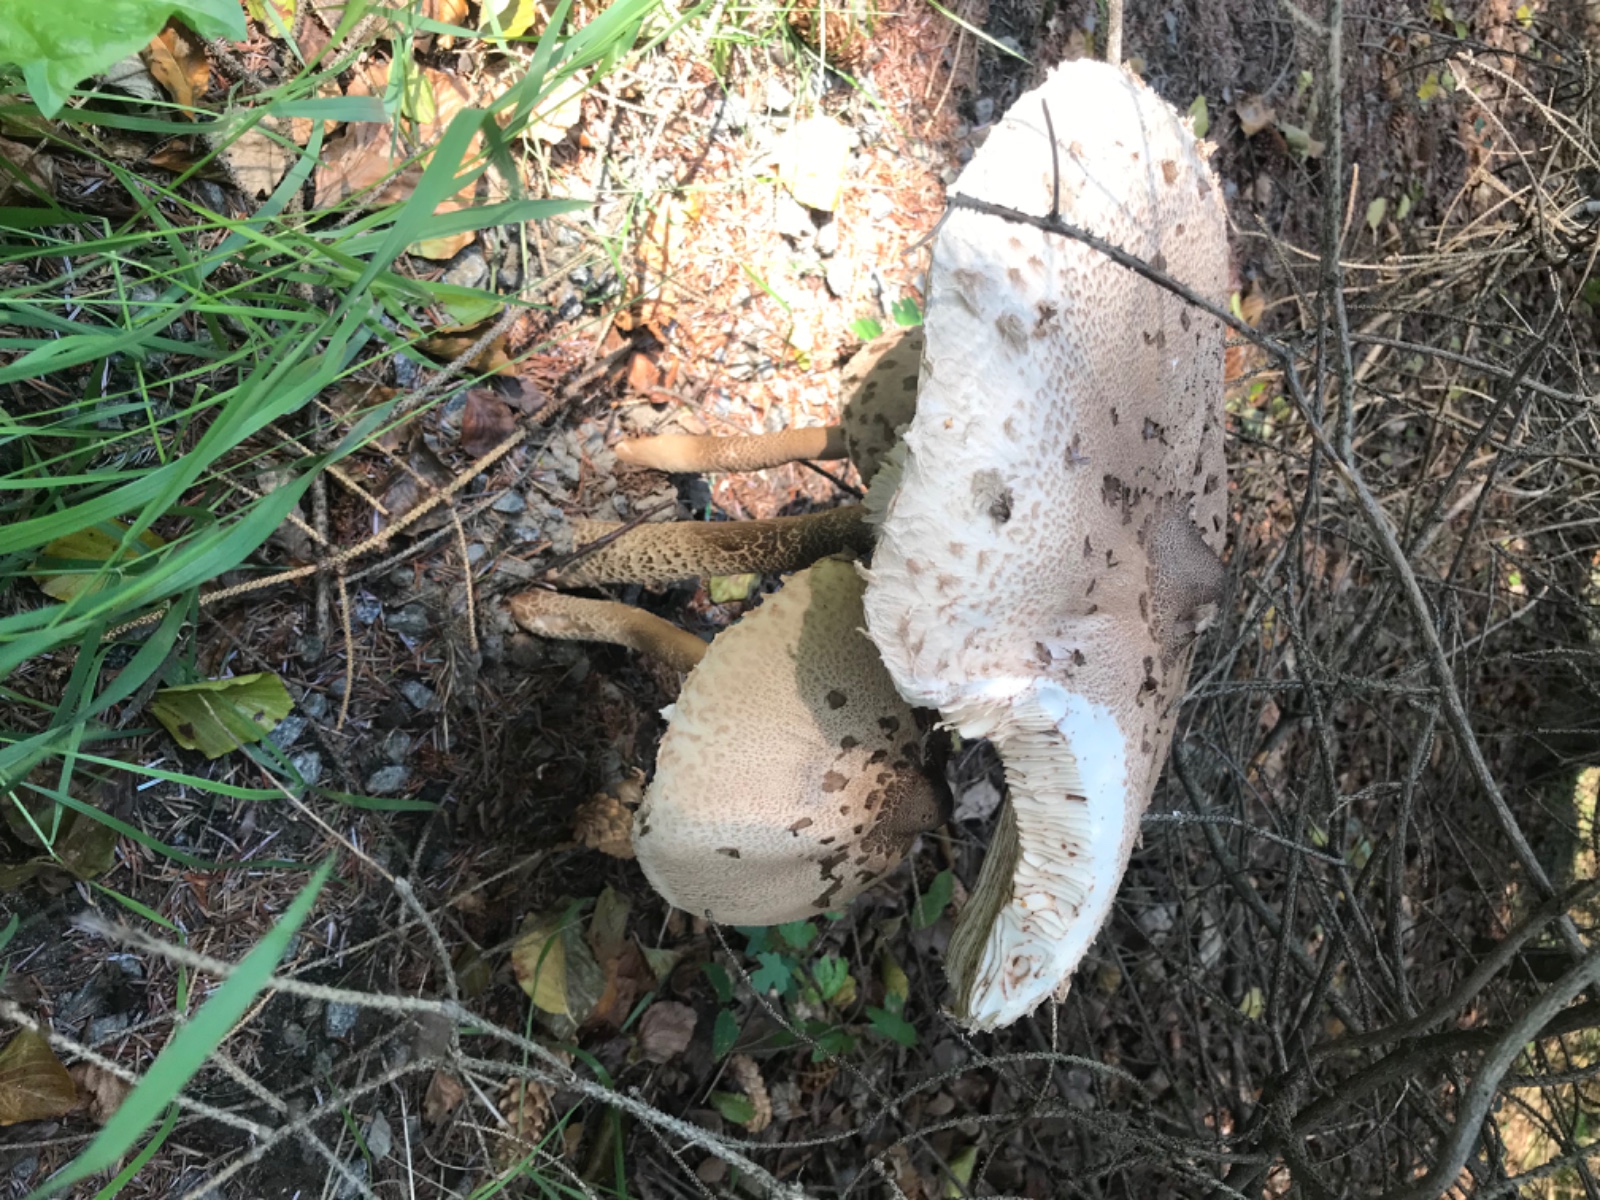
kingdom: Fungi
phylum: Basidiomycota
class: Agaricomycetes
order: Agaricales
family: Agaricaceae
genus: Macrolepiota
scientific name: Macrolepiota procera
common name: stor kæmpeparasolhat
